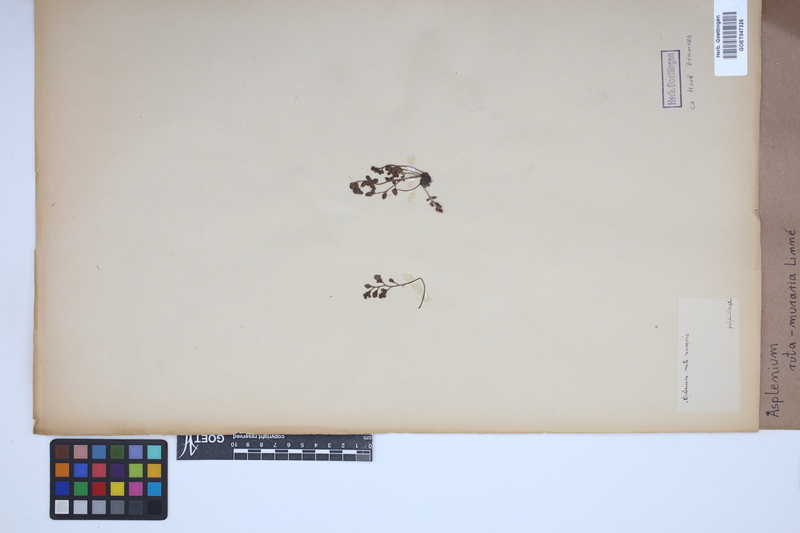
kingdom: Plantae
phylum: Tracheophyta
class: Polypodiopsida
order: Polypodiales
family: Aspleniaceae
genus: Asplenium
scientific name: Asplenium ruta-muraria
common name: Wall-rue
